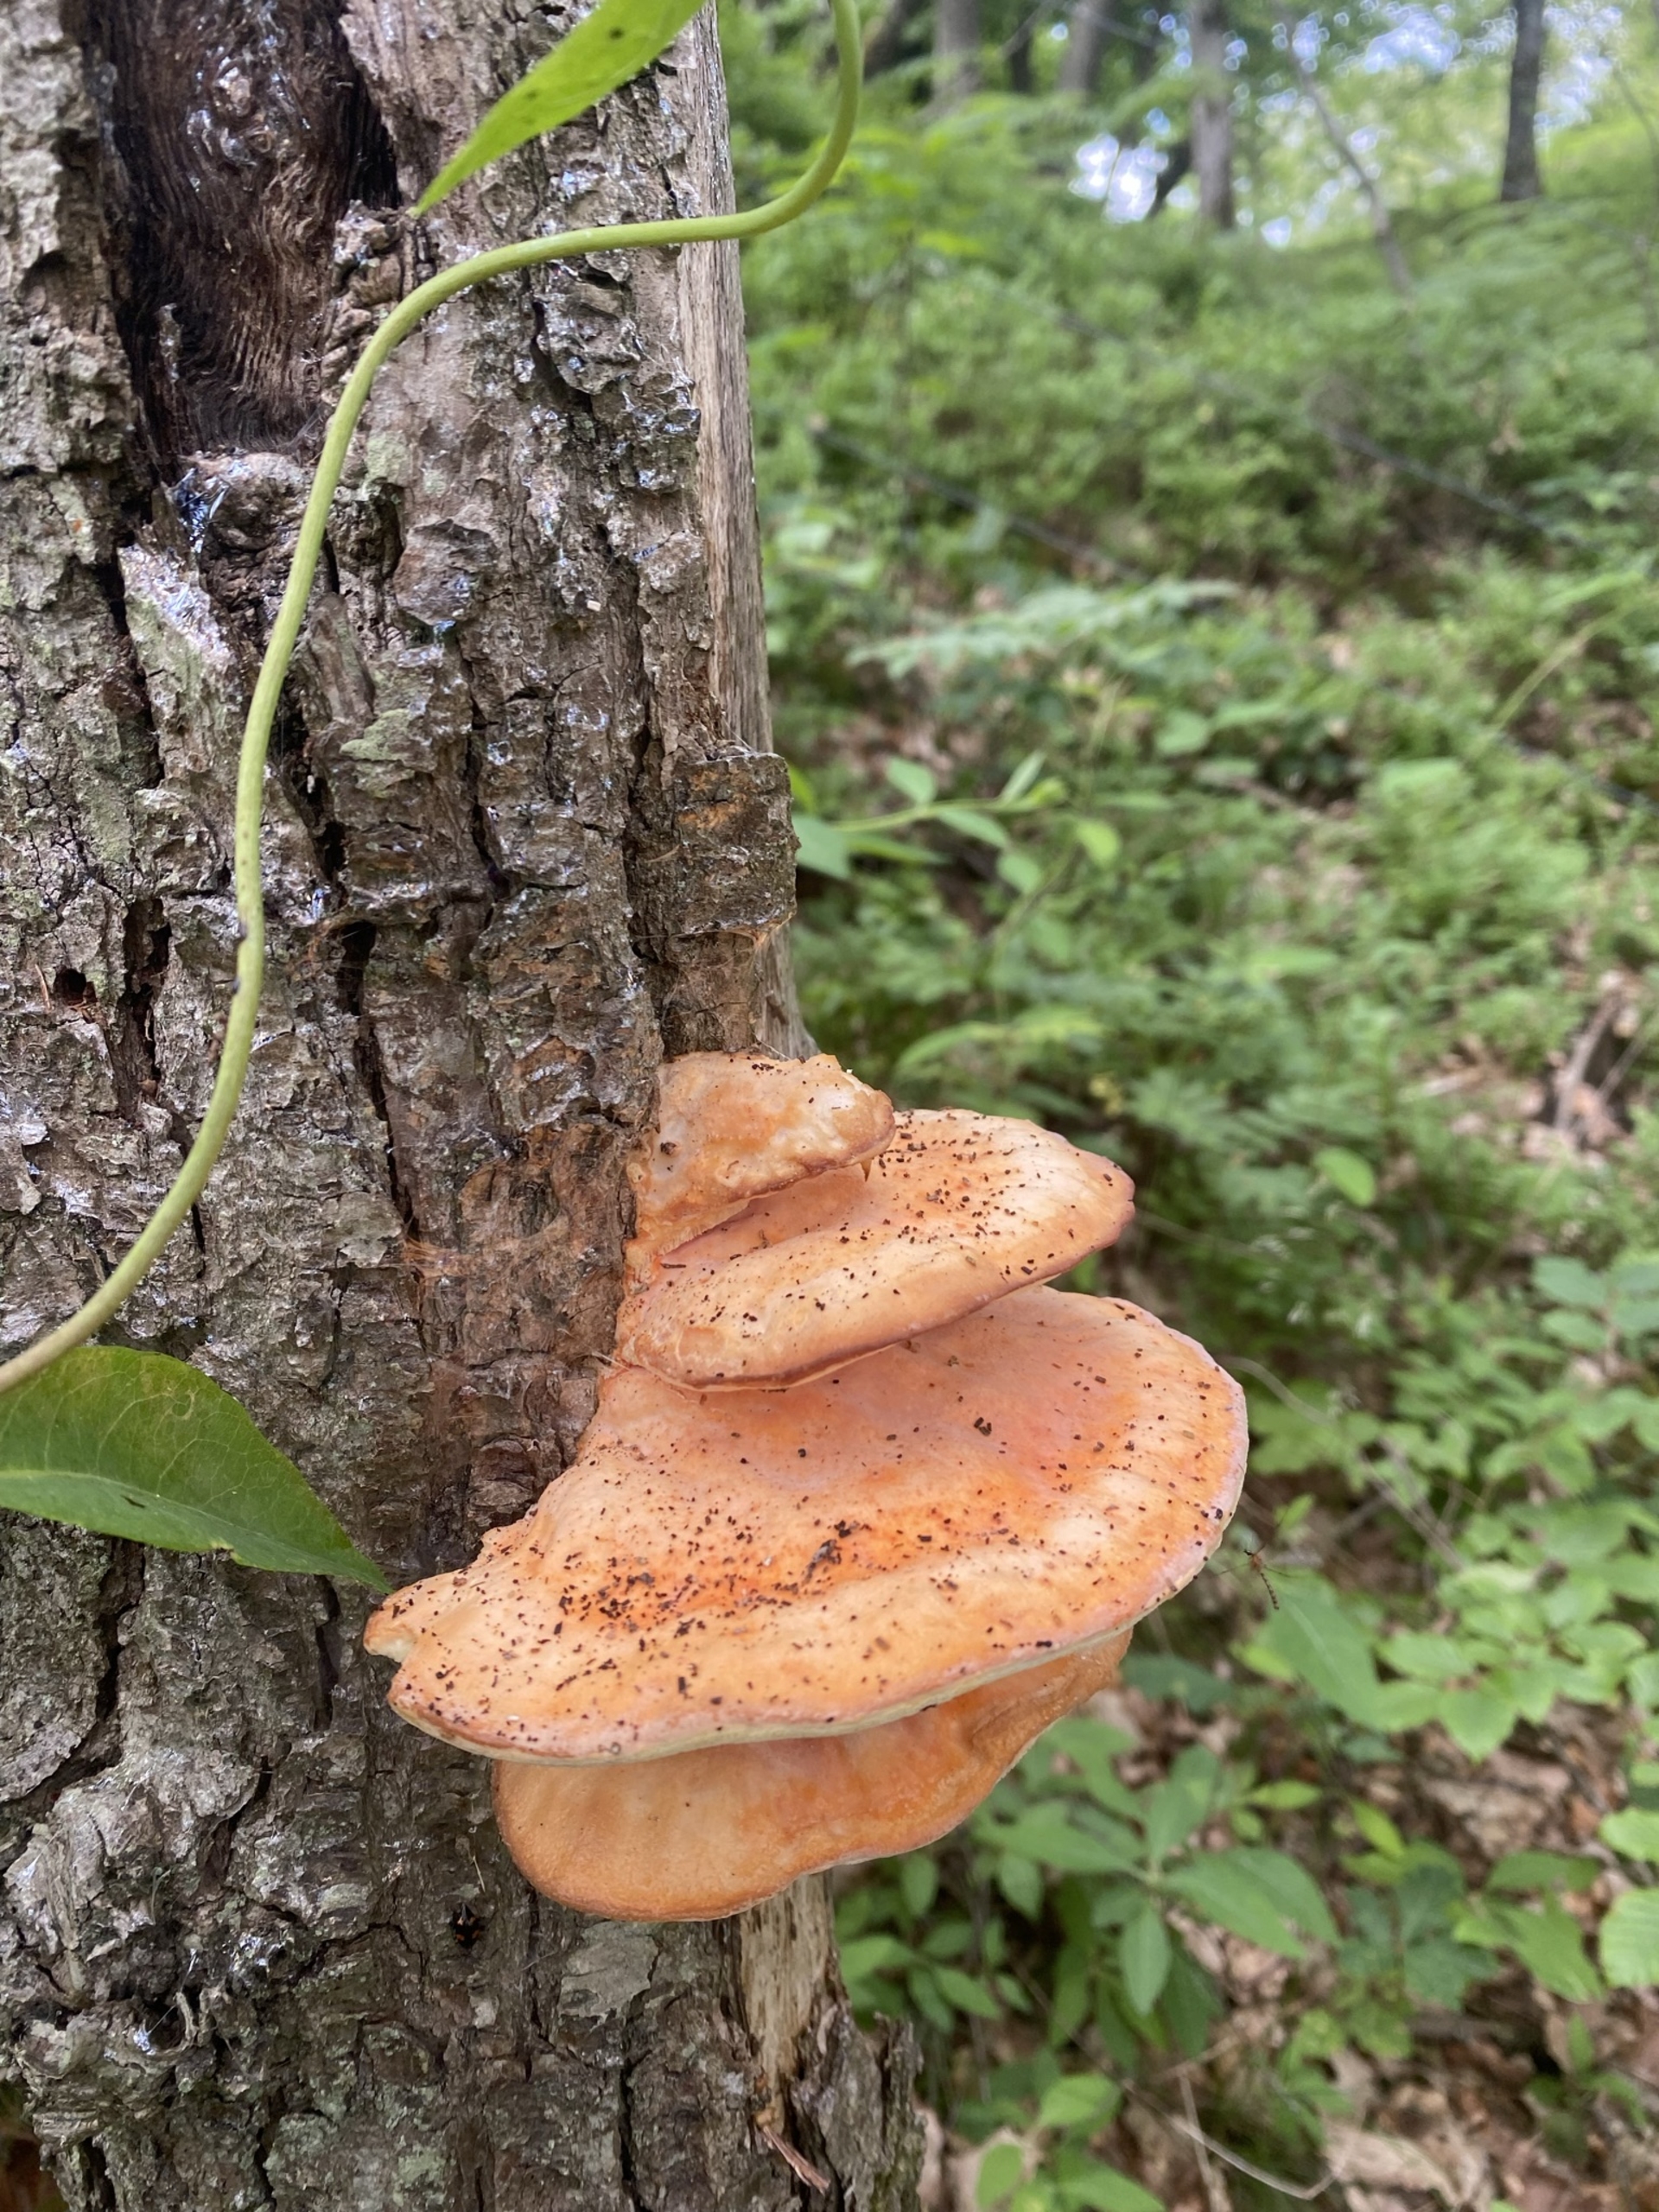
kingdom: Fungi
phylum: Basidiomycota
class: Agaricomycetes
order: Polyporales
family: Laetiporaceae
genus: Laetiporus
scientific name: Laetiporus sulphureus
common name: Svovlporesvamp
